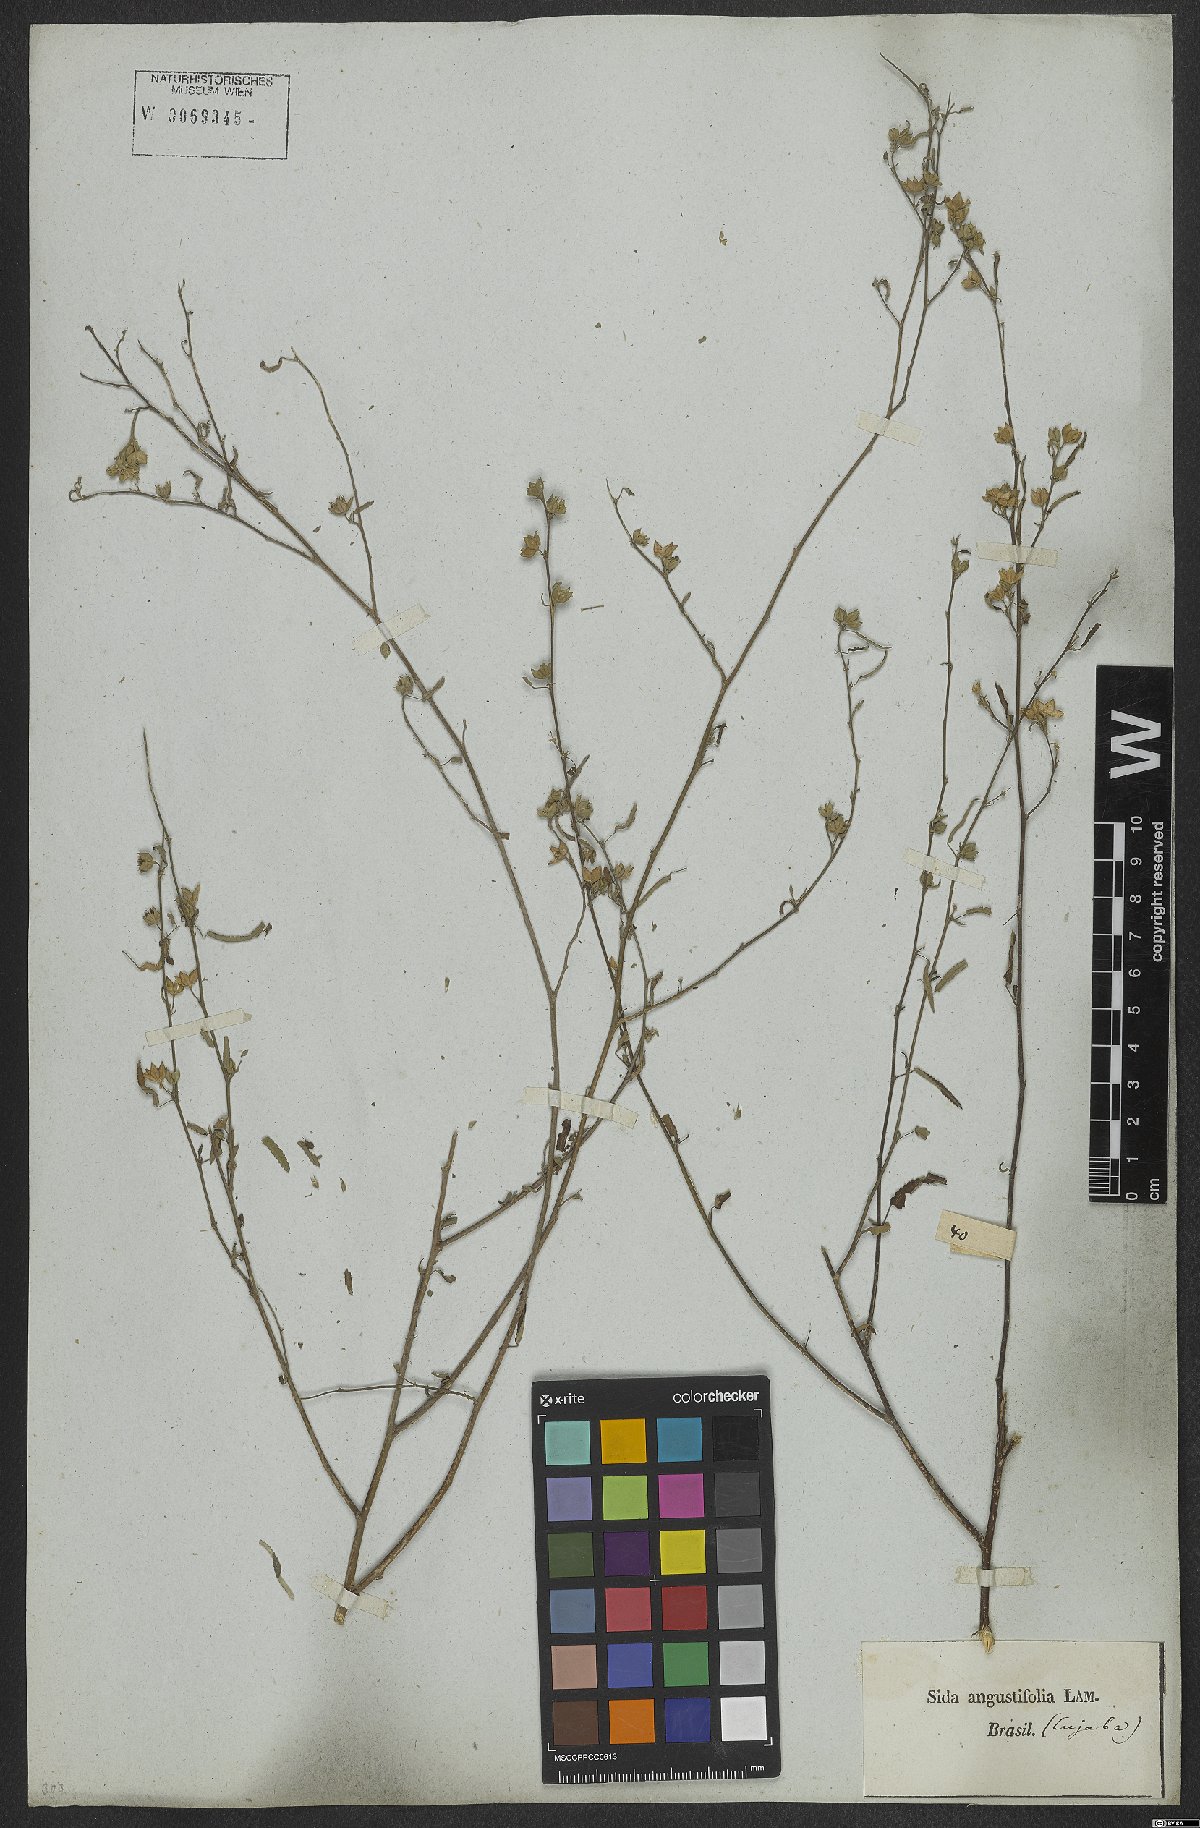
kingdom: Plantae
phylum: Tracheophyta
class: Magnoliopsida
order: Malvales
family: Malvaceae
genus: Sida
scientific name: Sida spinosa
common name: Prickly fanpetals
